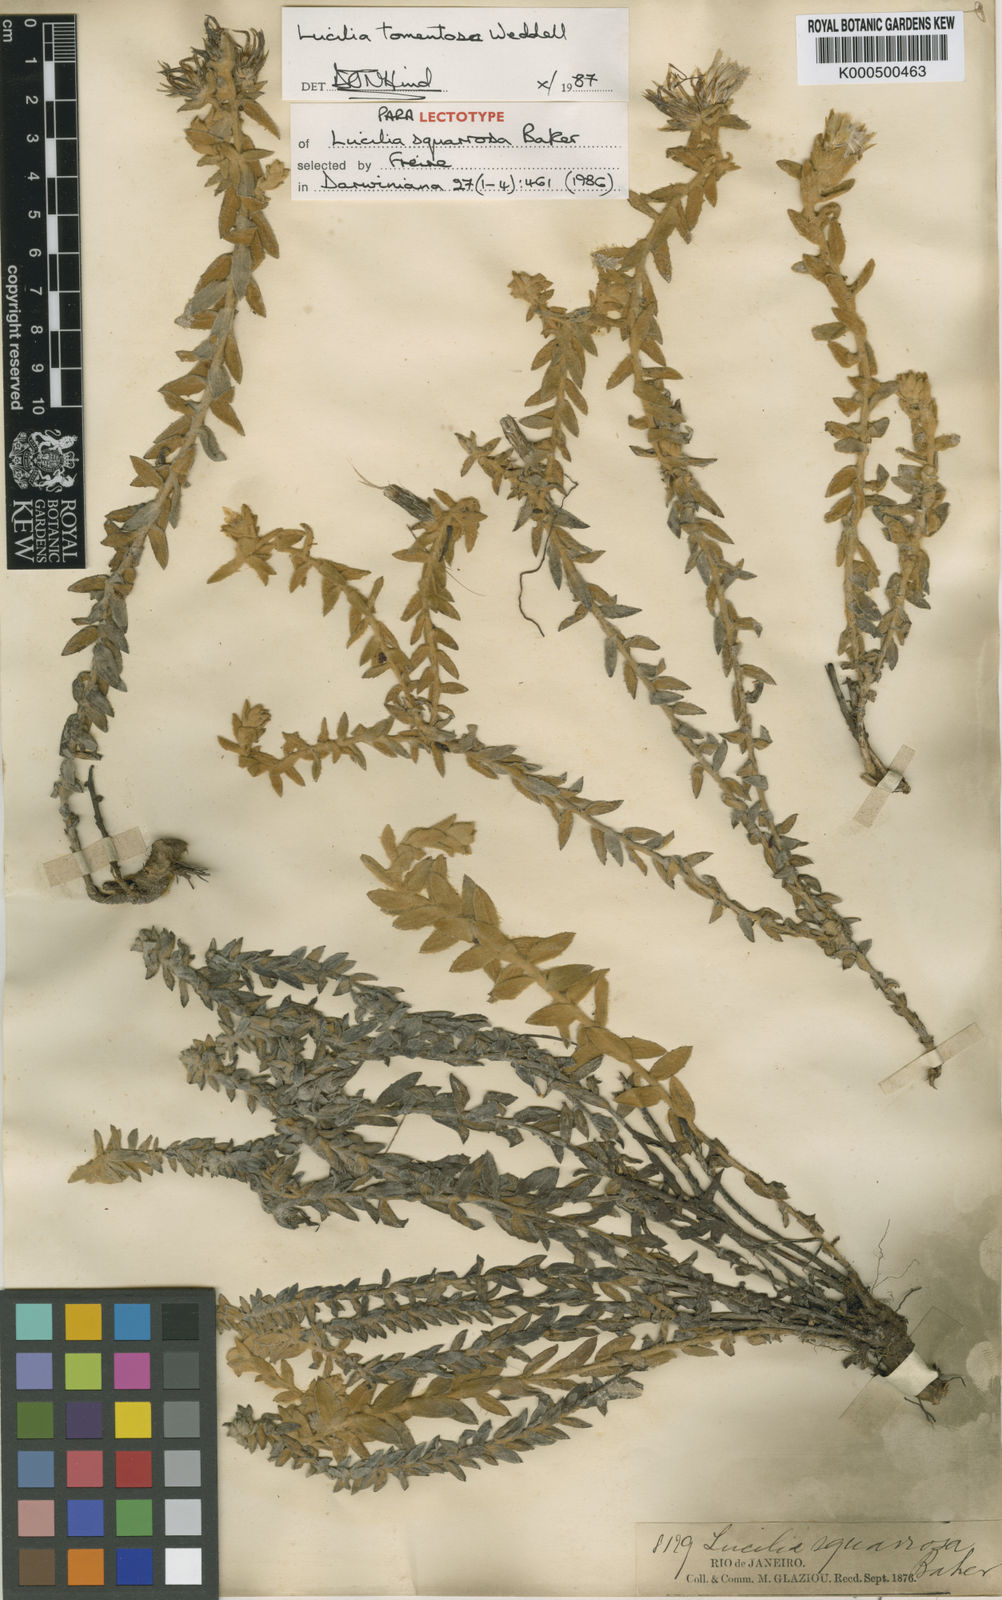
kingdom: Plantae
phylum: Tracheophyta
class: Magnoliopsida
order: Asterales
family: Asteraceae
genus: Lucilia
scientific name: Lucilia tomentosa
